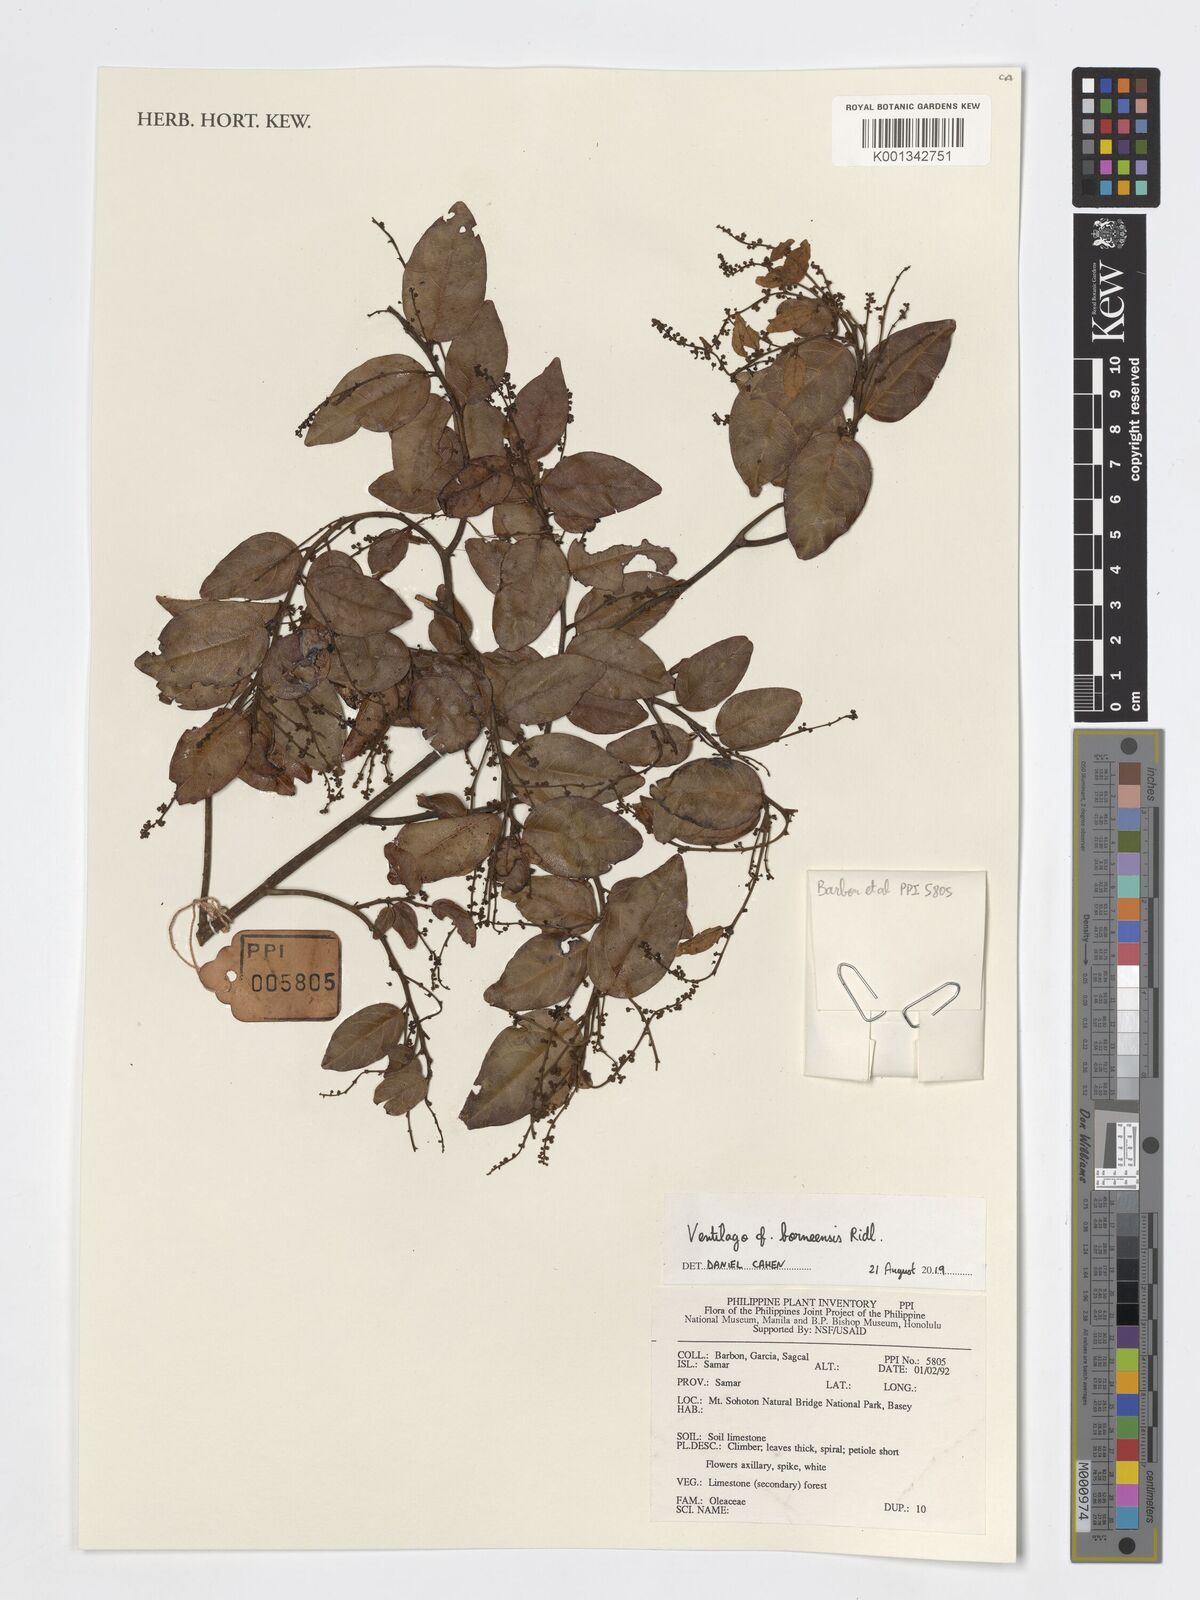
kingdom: Plantae
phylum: Tracheophyta
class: Magnoliopsida
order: Rosales
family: Rhamnaceae
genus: Ventilago
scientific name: Ventilago borneensis
